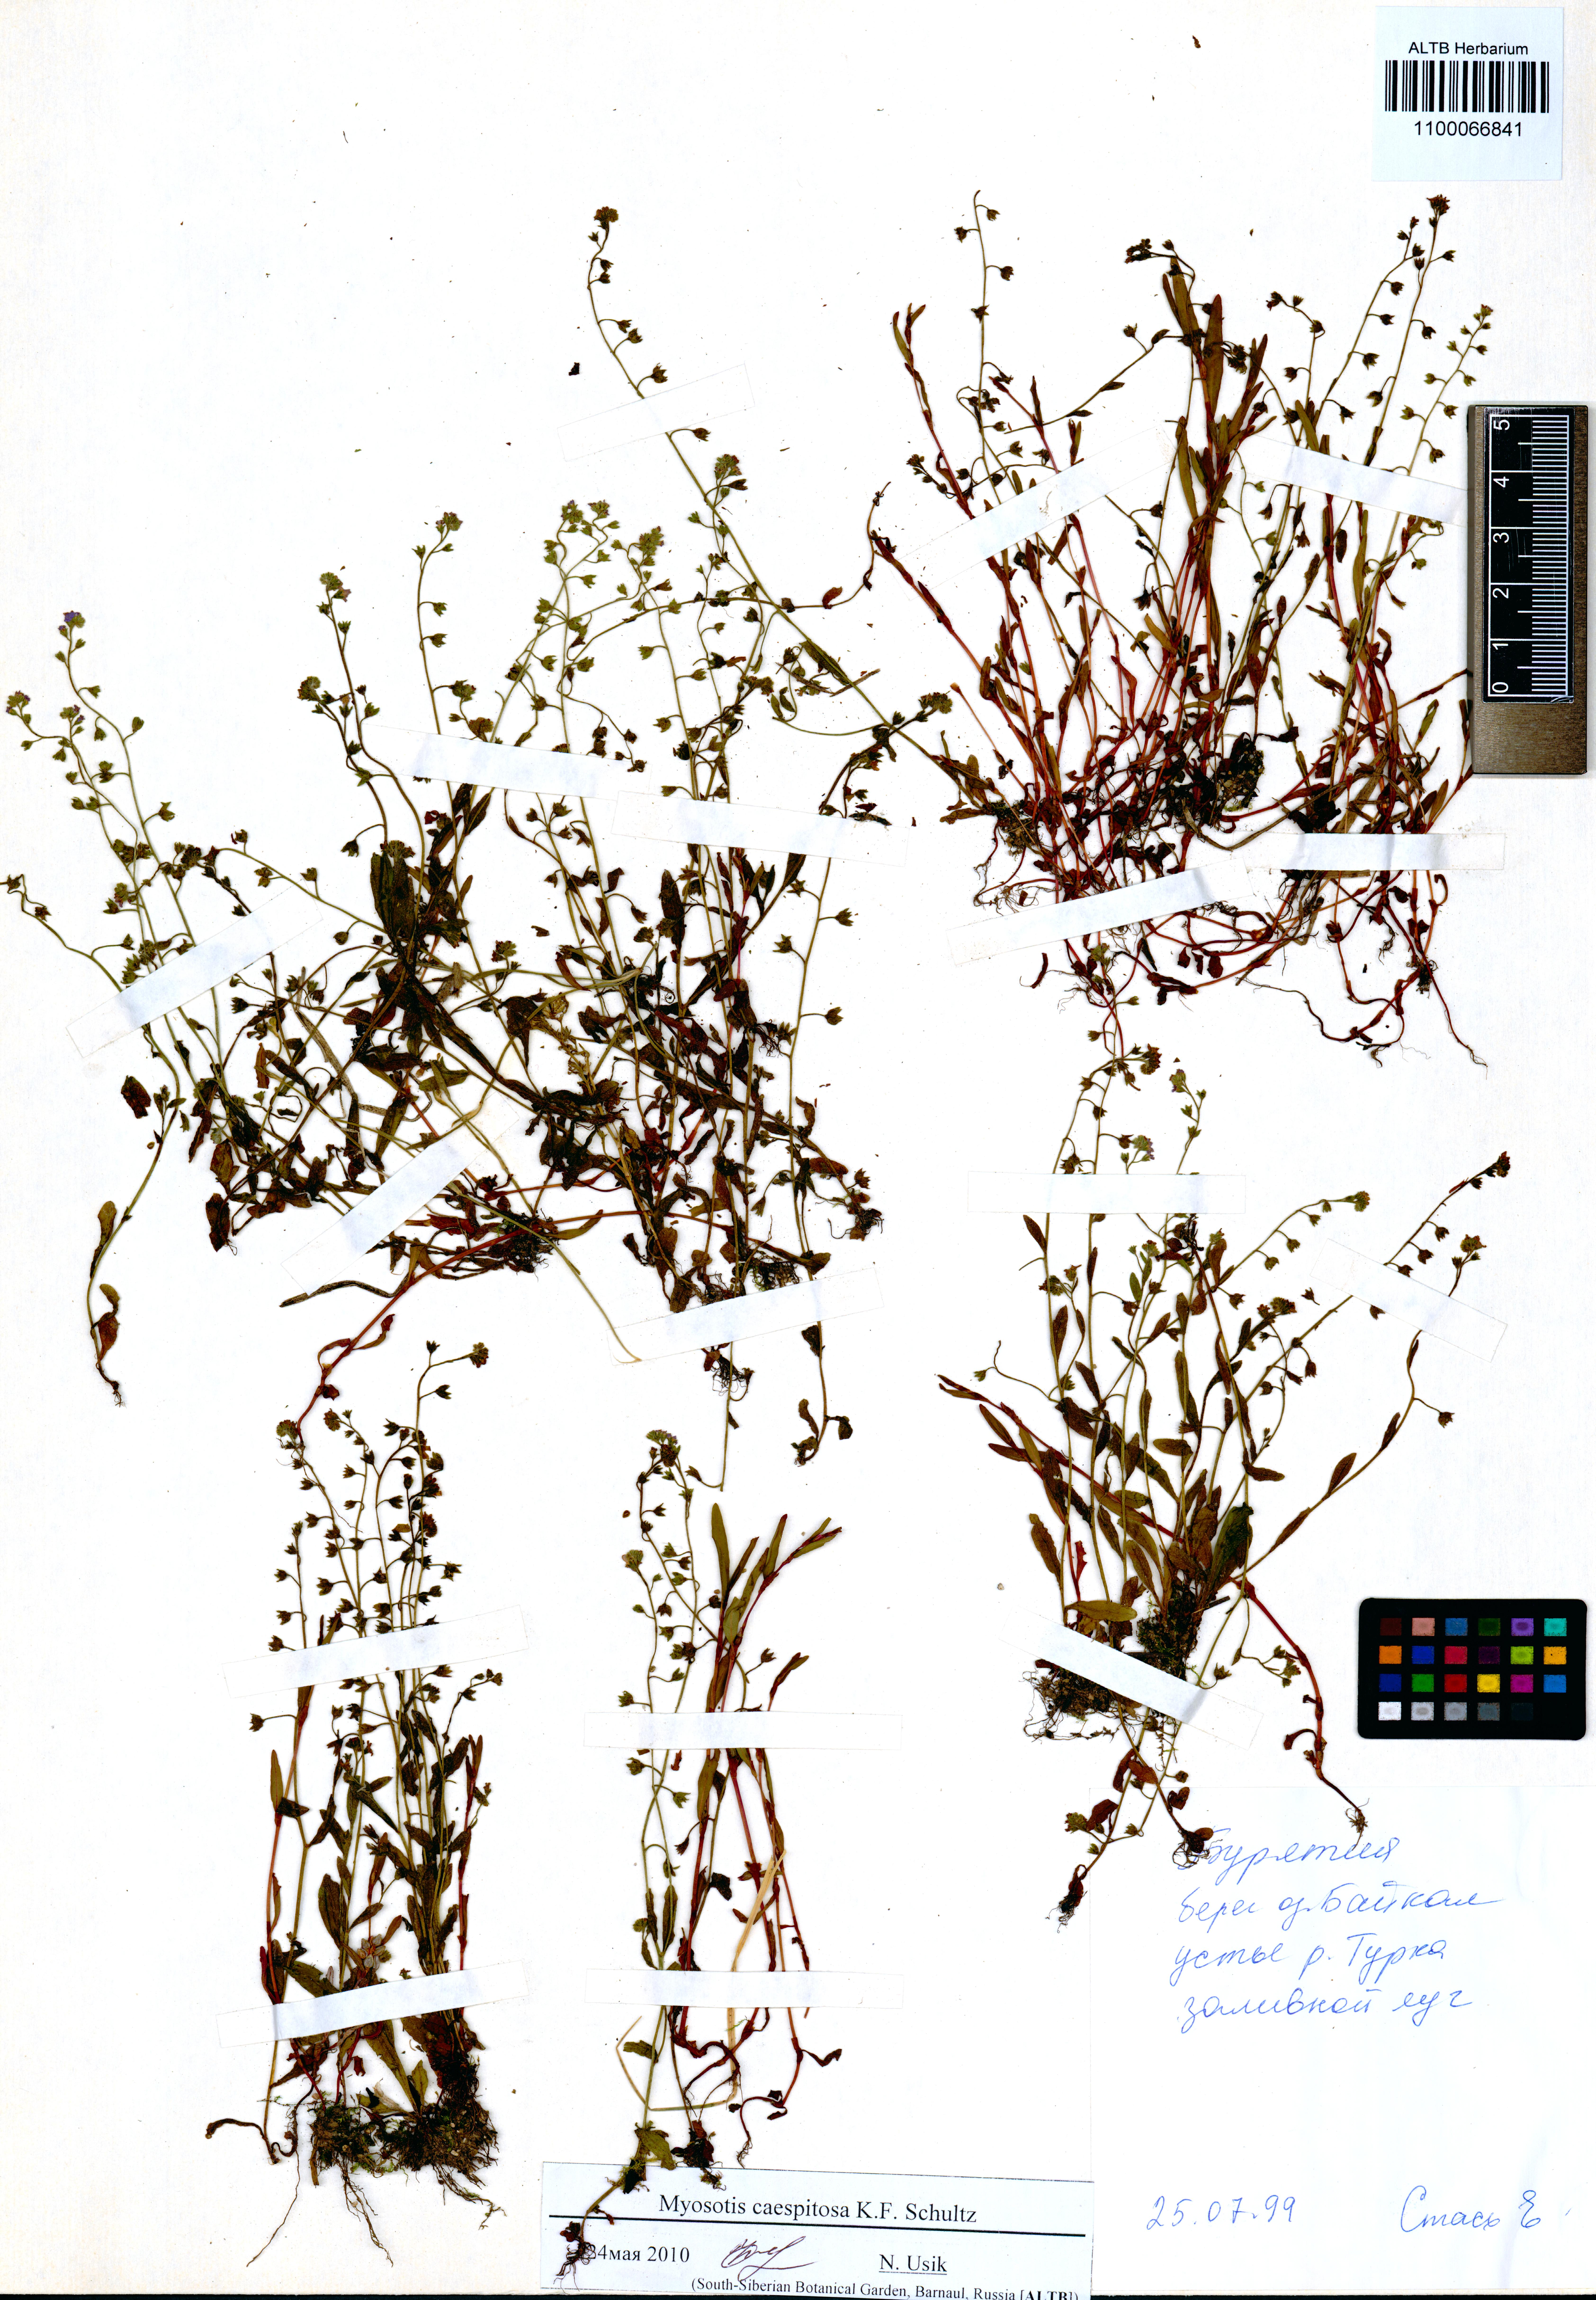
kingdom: Plantae
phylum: Tracheophyta
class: Magnoliopsida
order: Boraginales
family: Boraginaceae
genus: Myosotis
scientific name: Myosotis laxa
